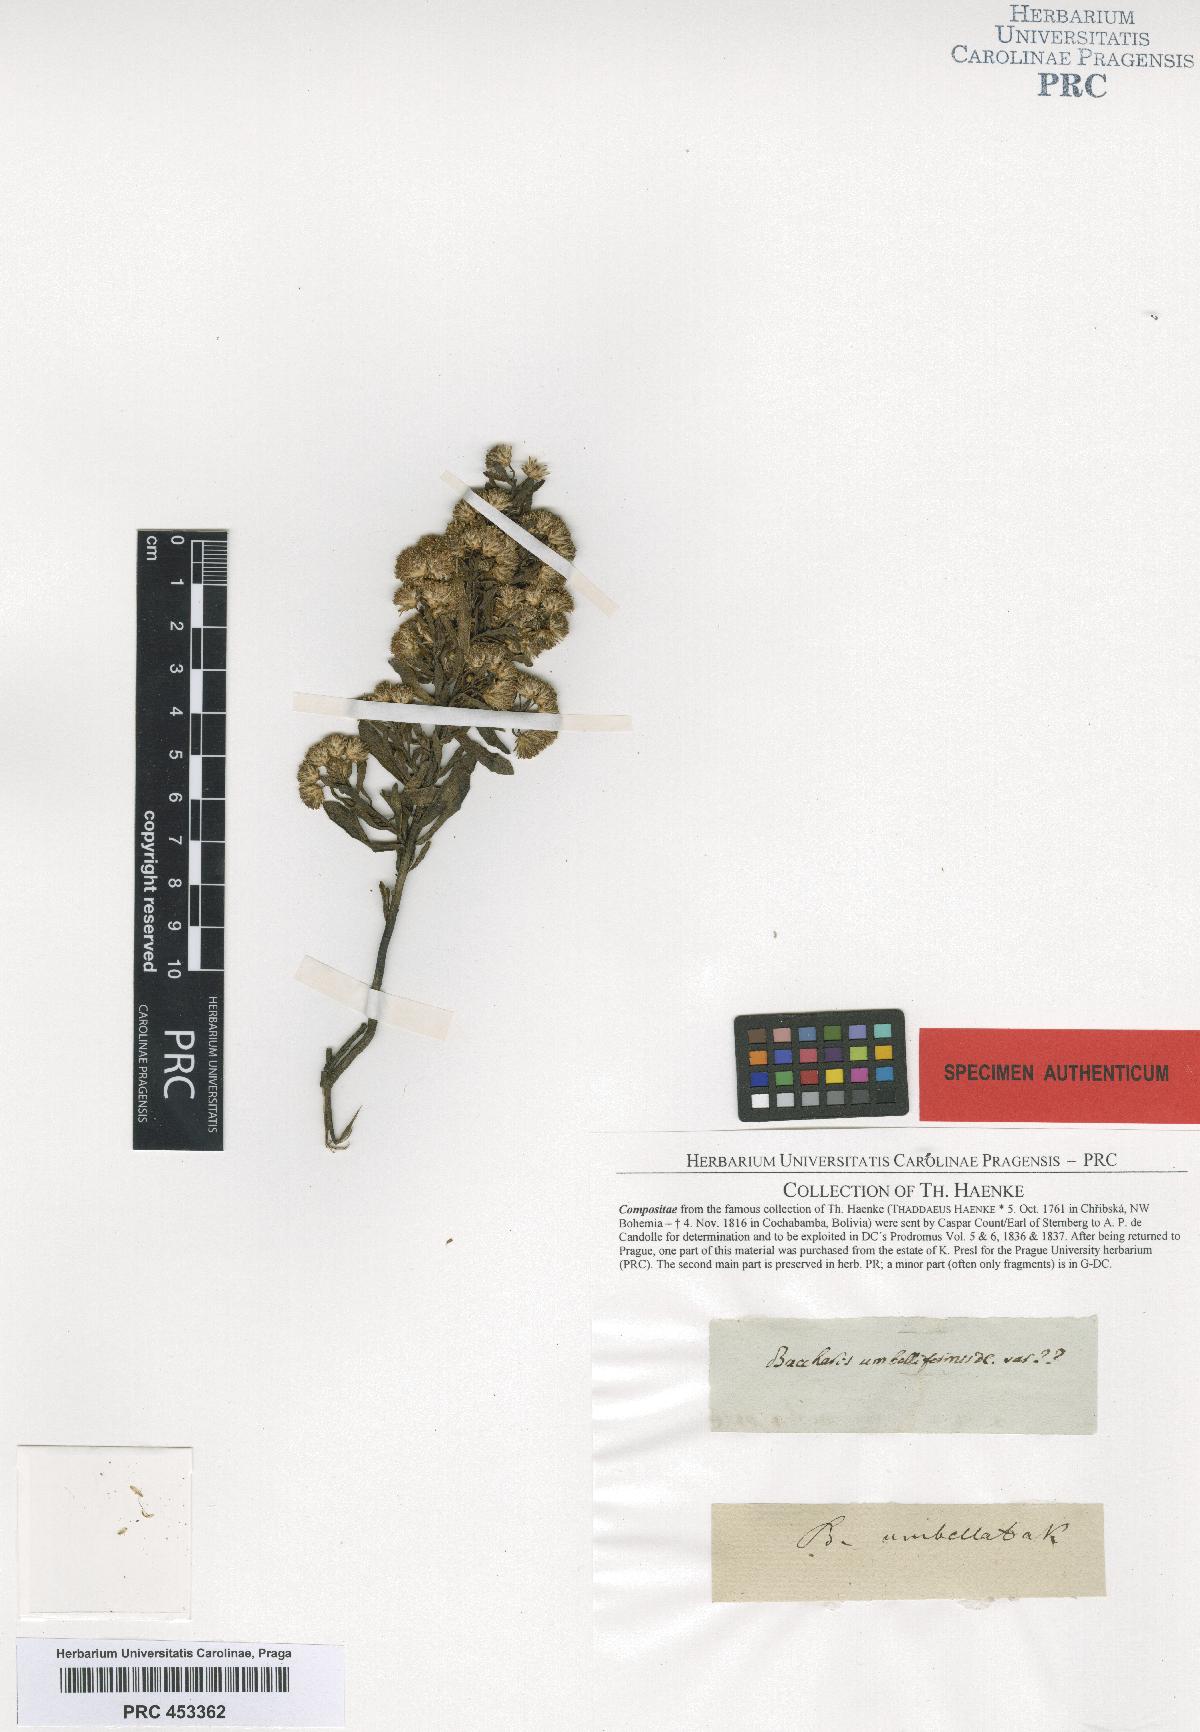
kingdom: Plantae
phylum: Tracheophyta
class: Magnoliopsida
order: Asterales
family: Asteraceae
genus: Baccharis
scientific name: Baccharis obovata
